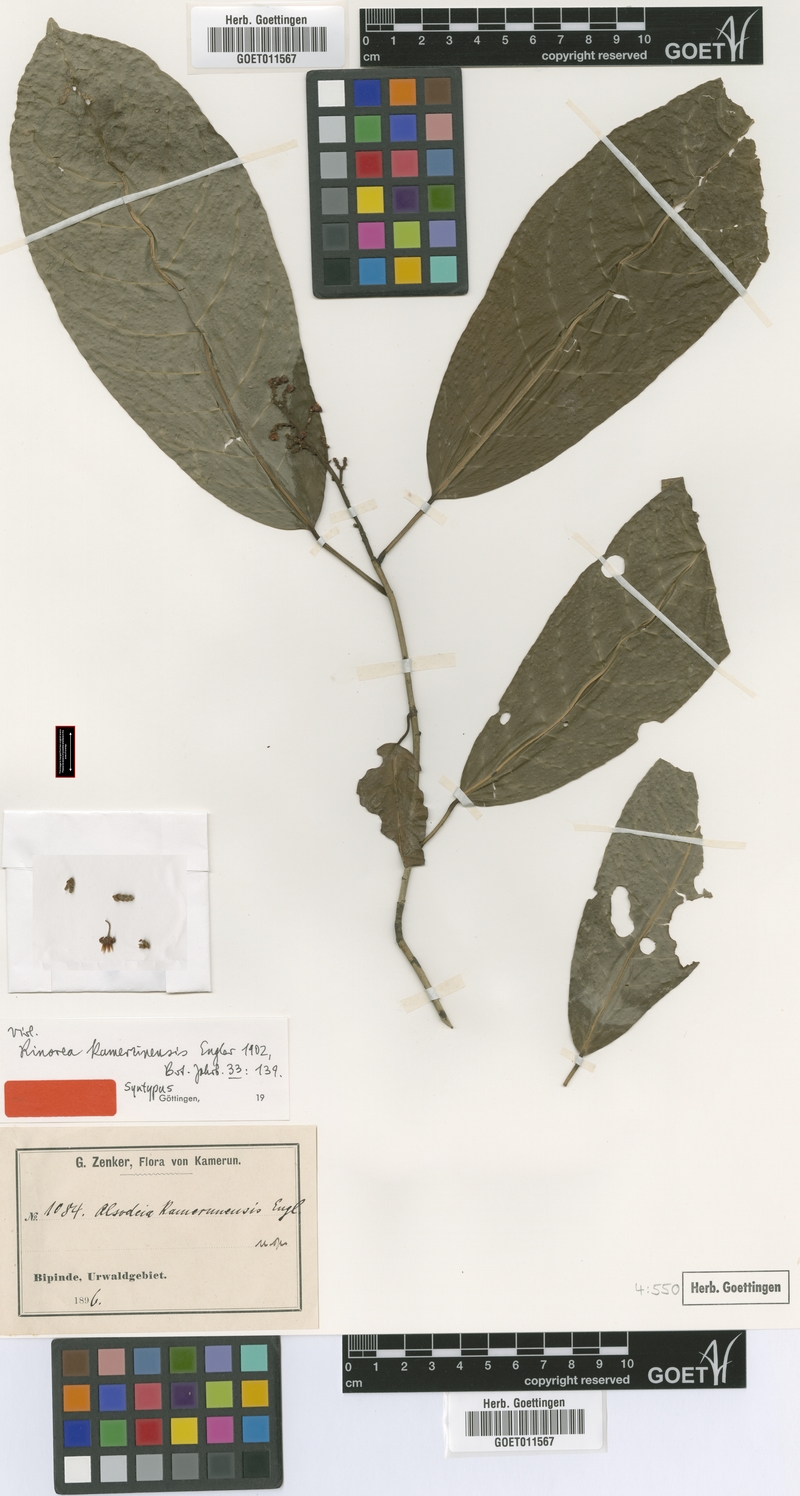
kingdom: Plantae
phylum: Tracheophyta
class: Magnoliopsida
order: Malpighiales
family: Violaceae
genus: Rinorea
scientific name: Rinorea kamerunensis
